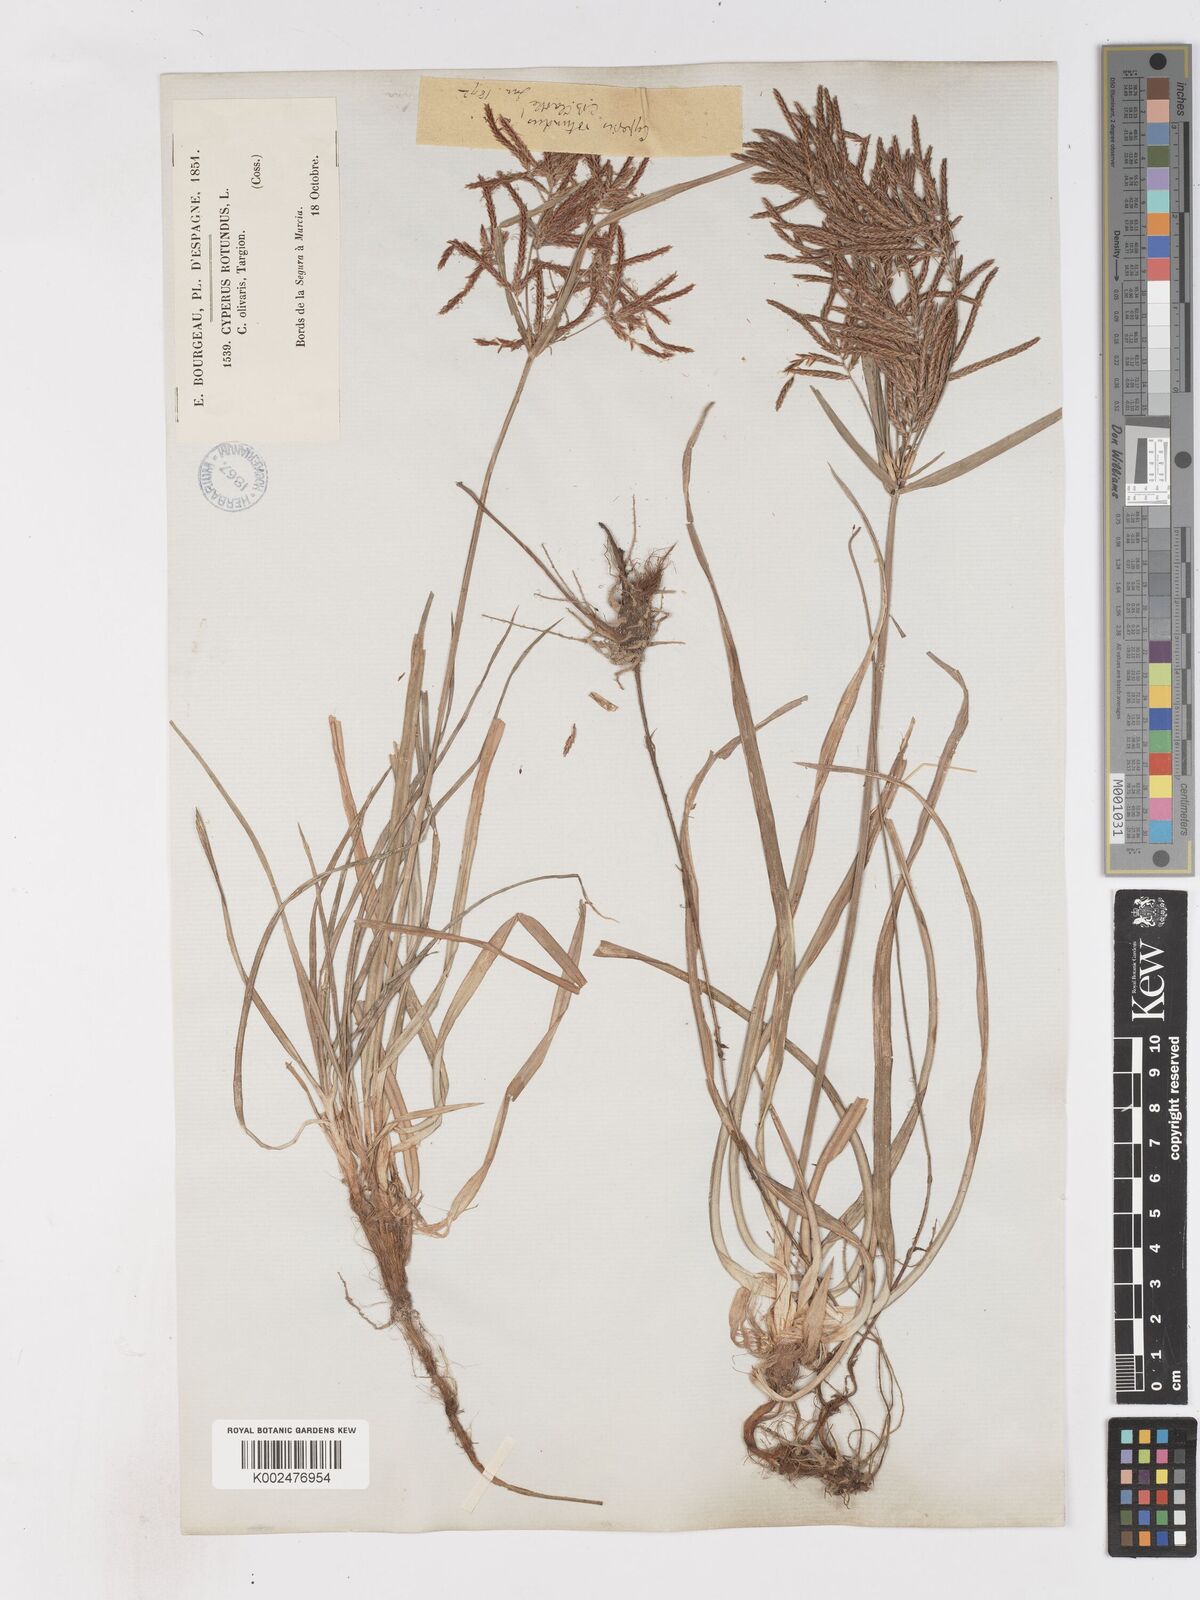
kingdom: Plantae
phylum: Tracheophyta
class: Liliopsida
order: Poales
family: Cyperaceae
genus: Cyperus
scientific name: Cyperus rotundus
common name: Nutgrass
